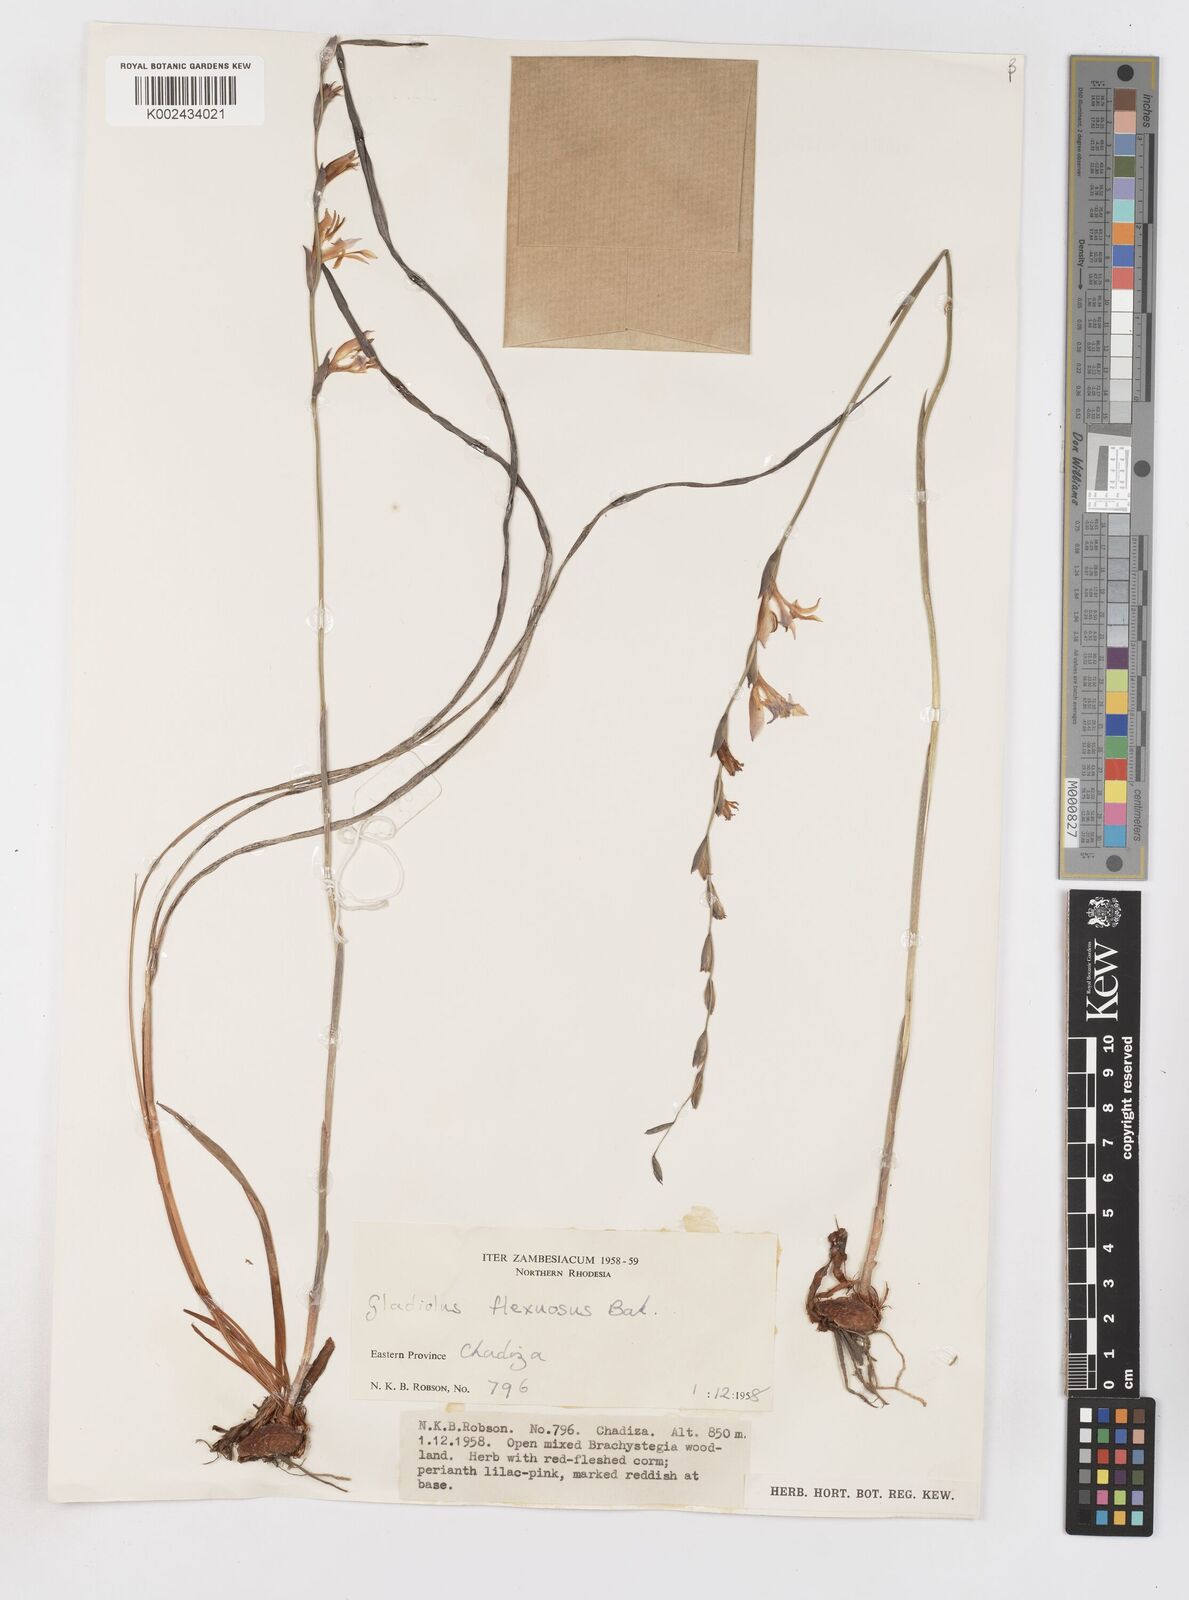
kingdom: Plantae
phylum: Tracheophyta
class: Liliopsida
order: Asparagales
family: Iridaceae
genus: Gladiolus
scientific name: Gladiolus atropurpureus
